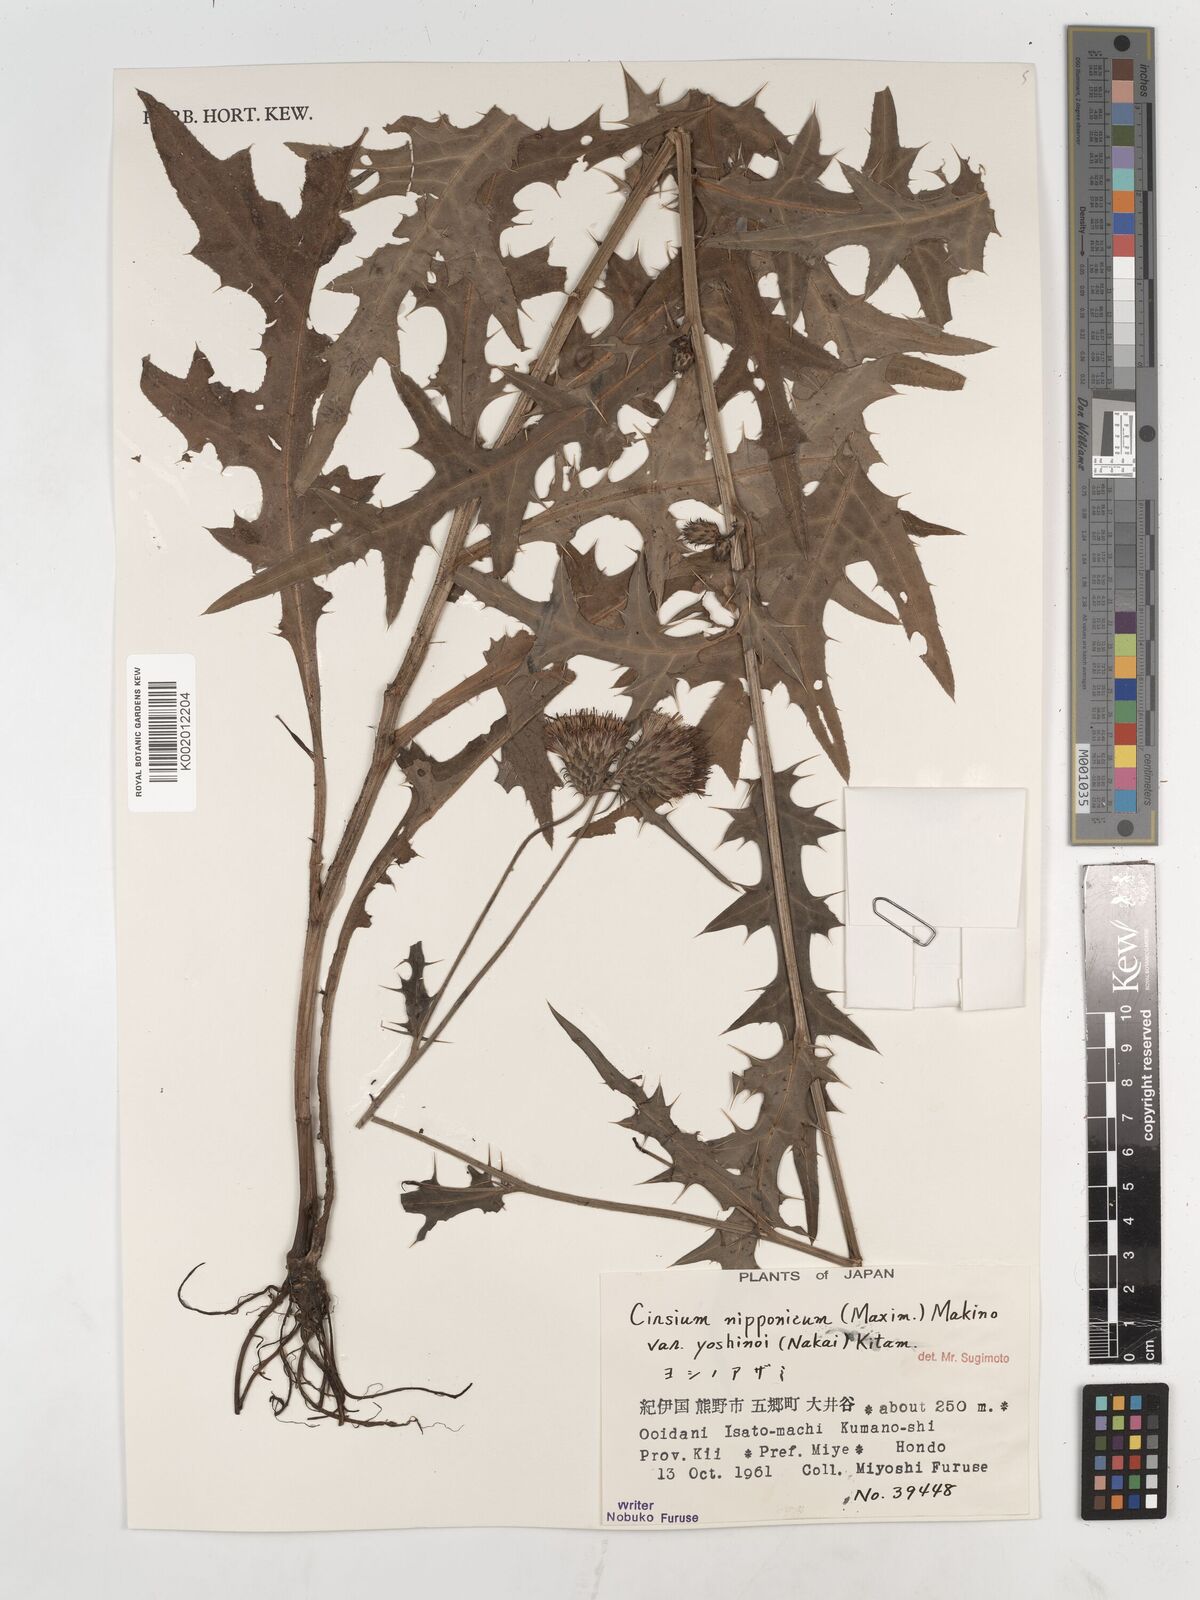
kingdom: Plantae
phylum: Tracheophyta
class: Magnoliopsida
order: Asterales
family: Asteraceae
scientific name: Asteraceae
